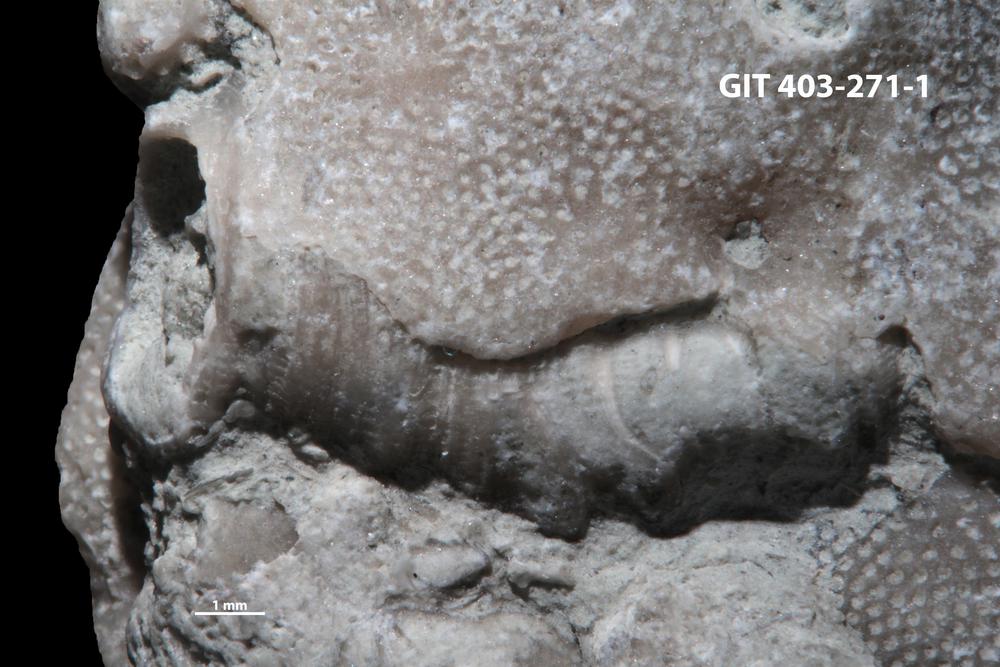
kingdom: Animalia
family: Cornulitidae
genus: Cornulites
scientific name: Cornulites
